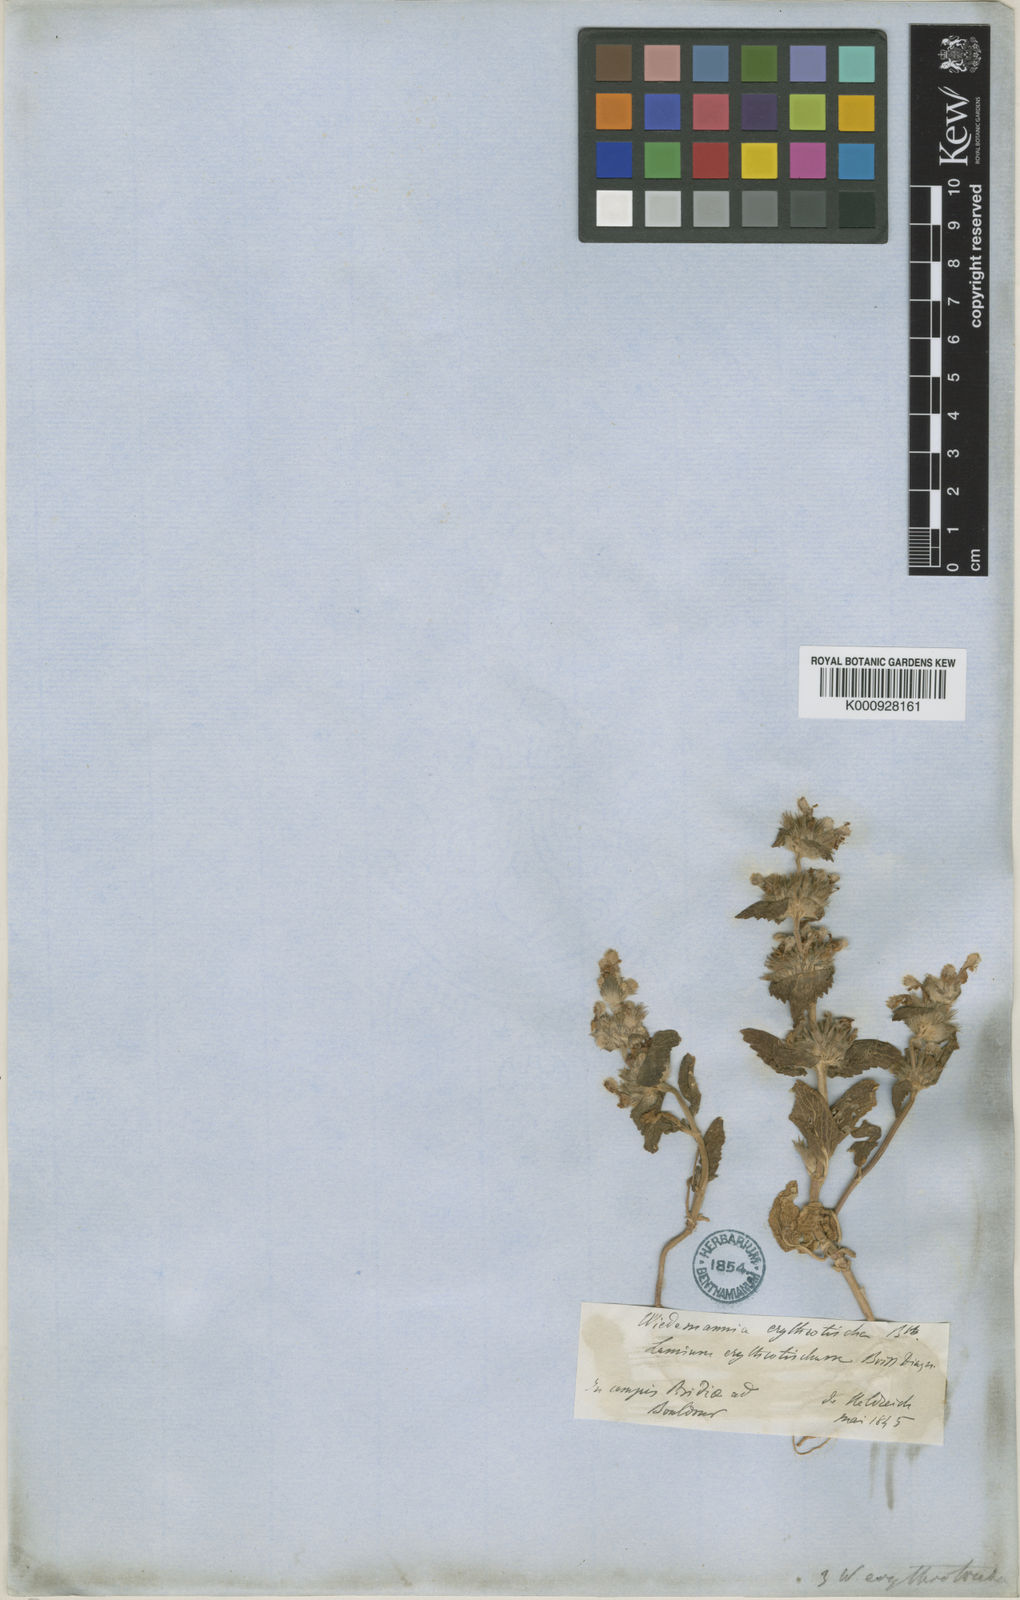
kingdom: Plantae
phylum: Tracheophyta
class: Magnoliopsida
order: Lamiales
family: Lamiaceae
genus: Lamium
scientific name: Lamium orientale
